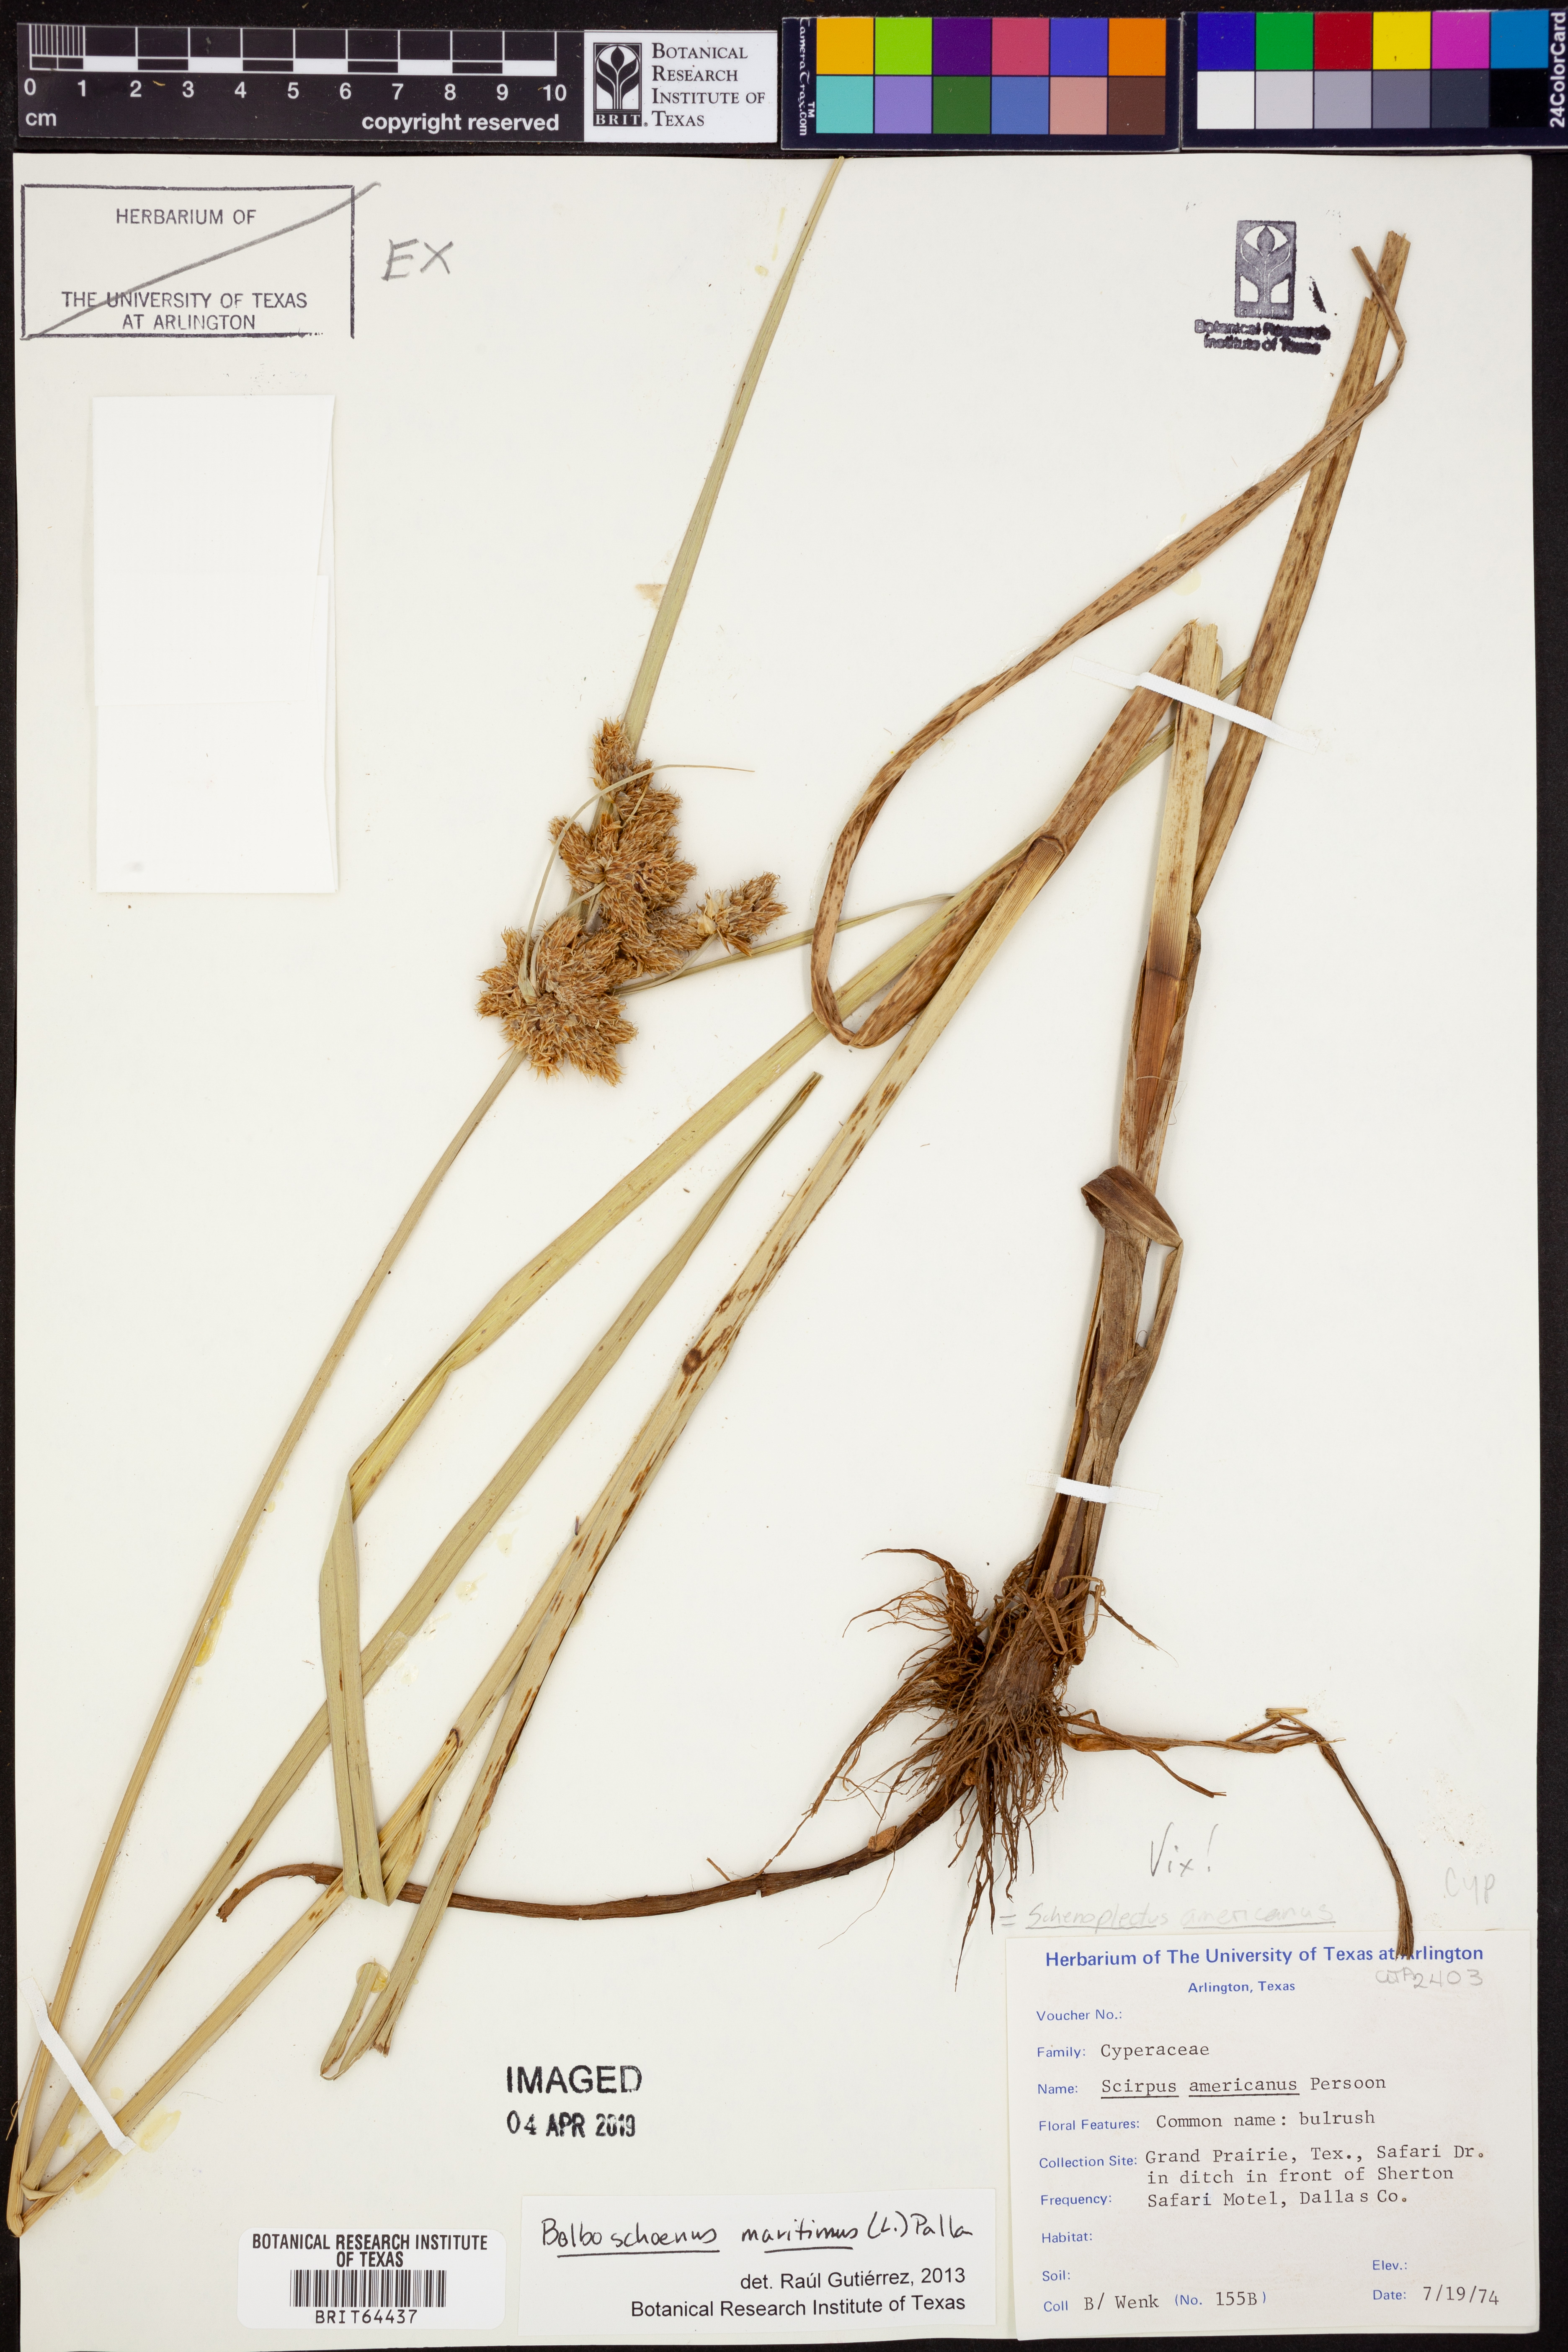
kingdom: Plantae
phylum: Tracheophyta
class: Liliopsida
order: Poales
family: Cyperaceae
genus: Bolboschoenus
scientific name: Bolboschoenus maritimus
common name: Sea club-rush
